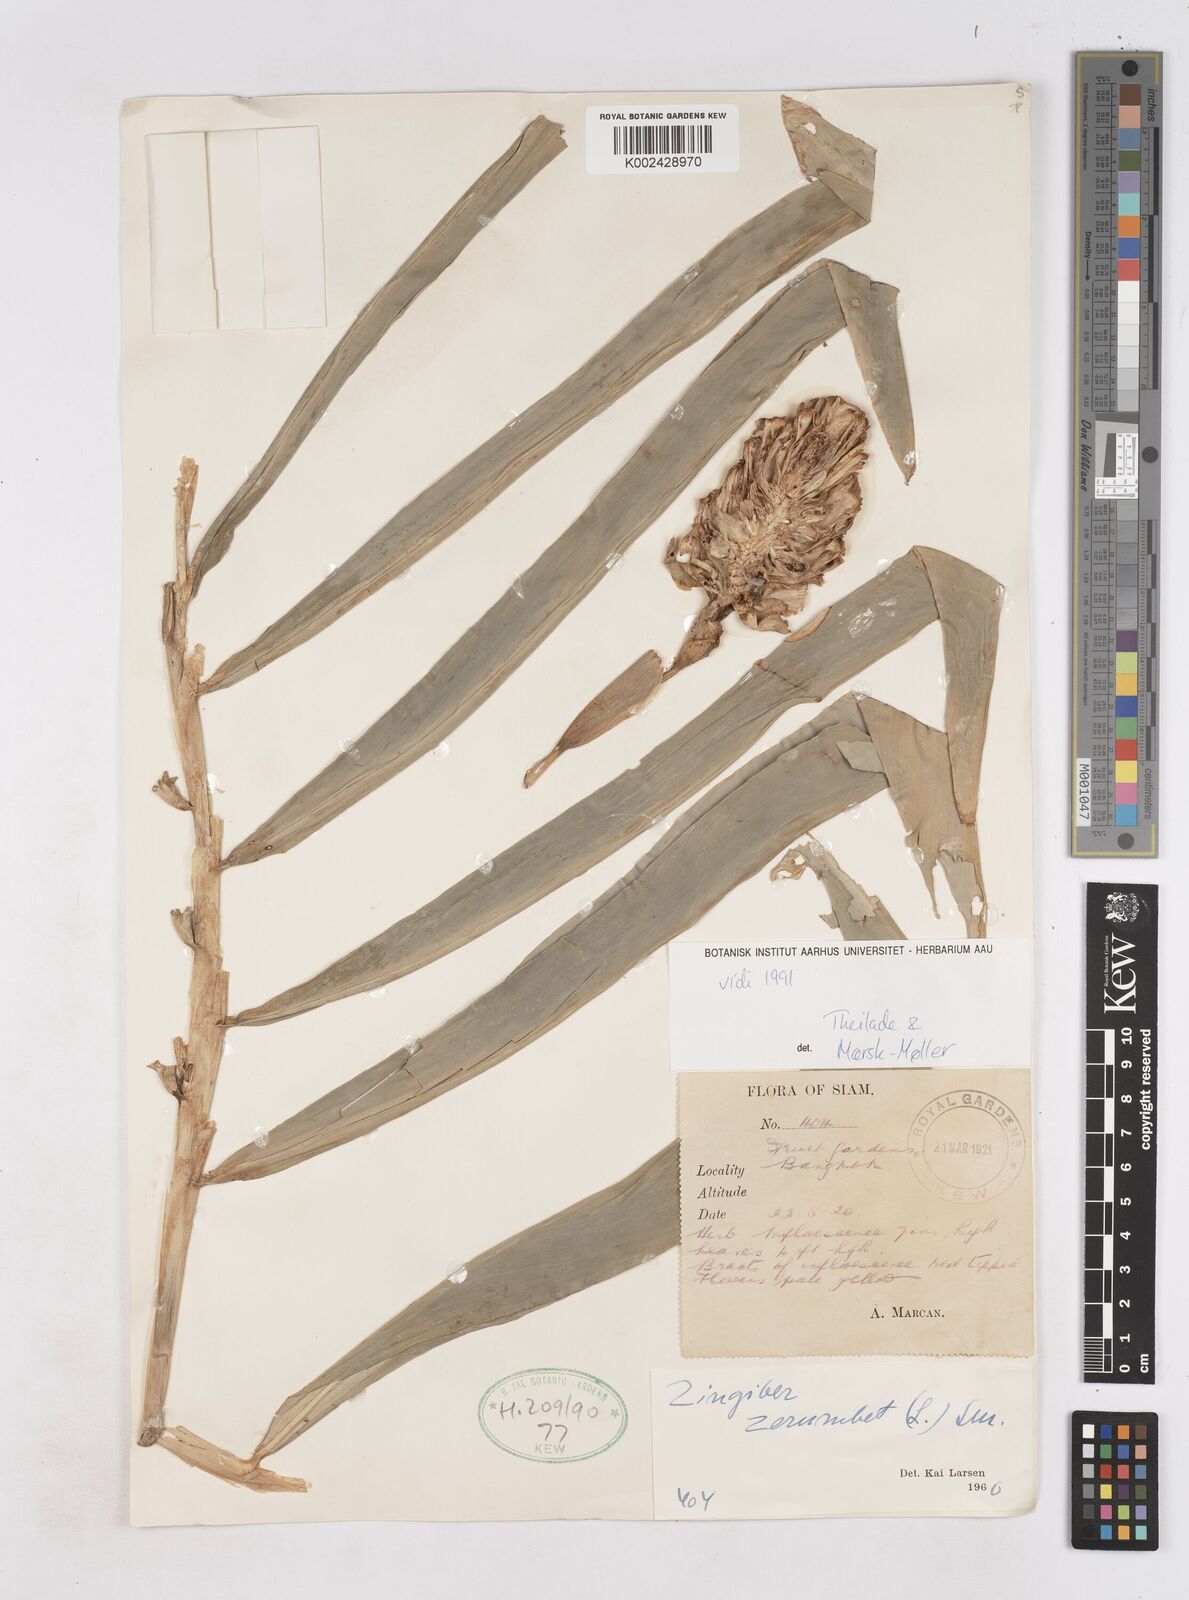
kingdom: Plantae
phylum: Tracheophyta
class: Liliopsida
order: Zingiberales
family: Zingiberaceae
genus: Zingiber
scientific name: Zingiber zerumbet
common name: Bitter ginger
